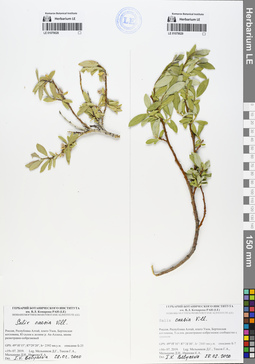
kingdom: Plantae
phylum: Tracheophyta
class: Magnoliopsida
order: Malpighiales
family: Salicaceae
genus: Salix
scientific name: Salix caesia
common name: Blue willow
